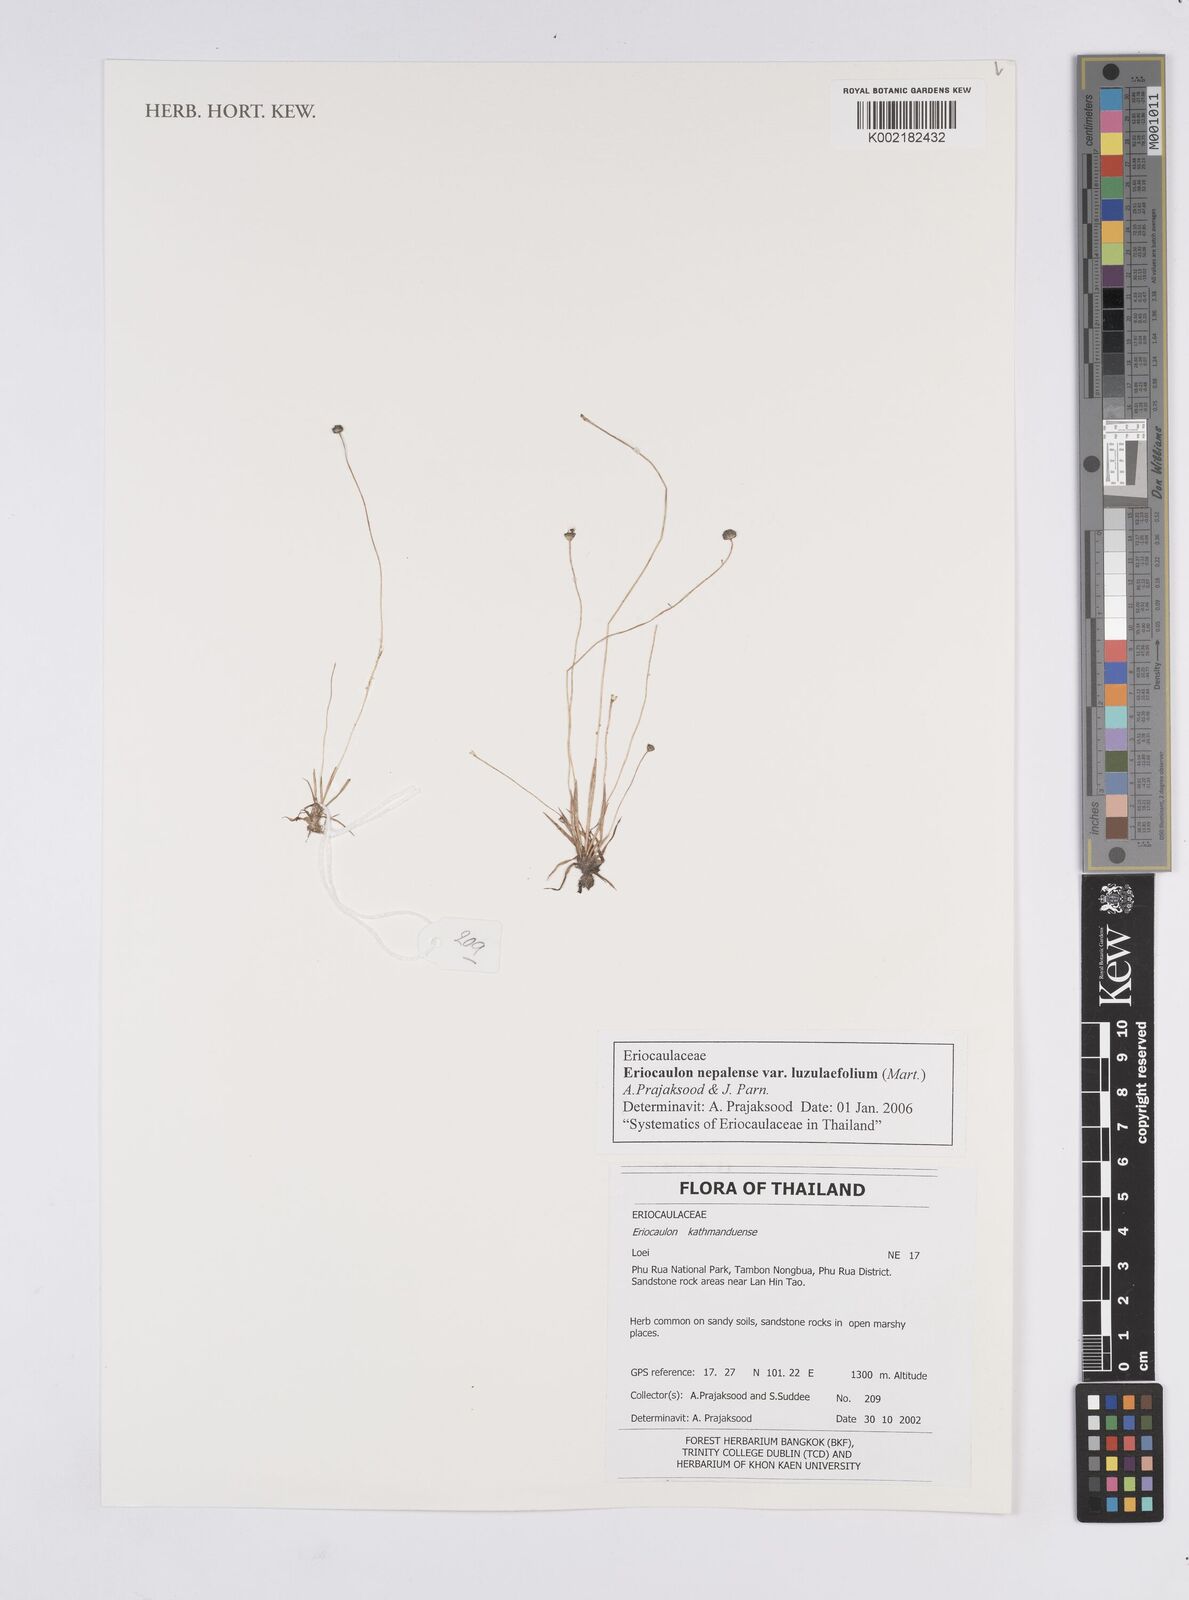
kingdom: Plantae
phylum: Tracheophyta
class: Liliopsida
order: Poales
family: Eriocaulaceae
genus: Eriocaulon
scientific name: Eriocaulon nepalense
